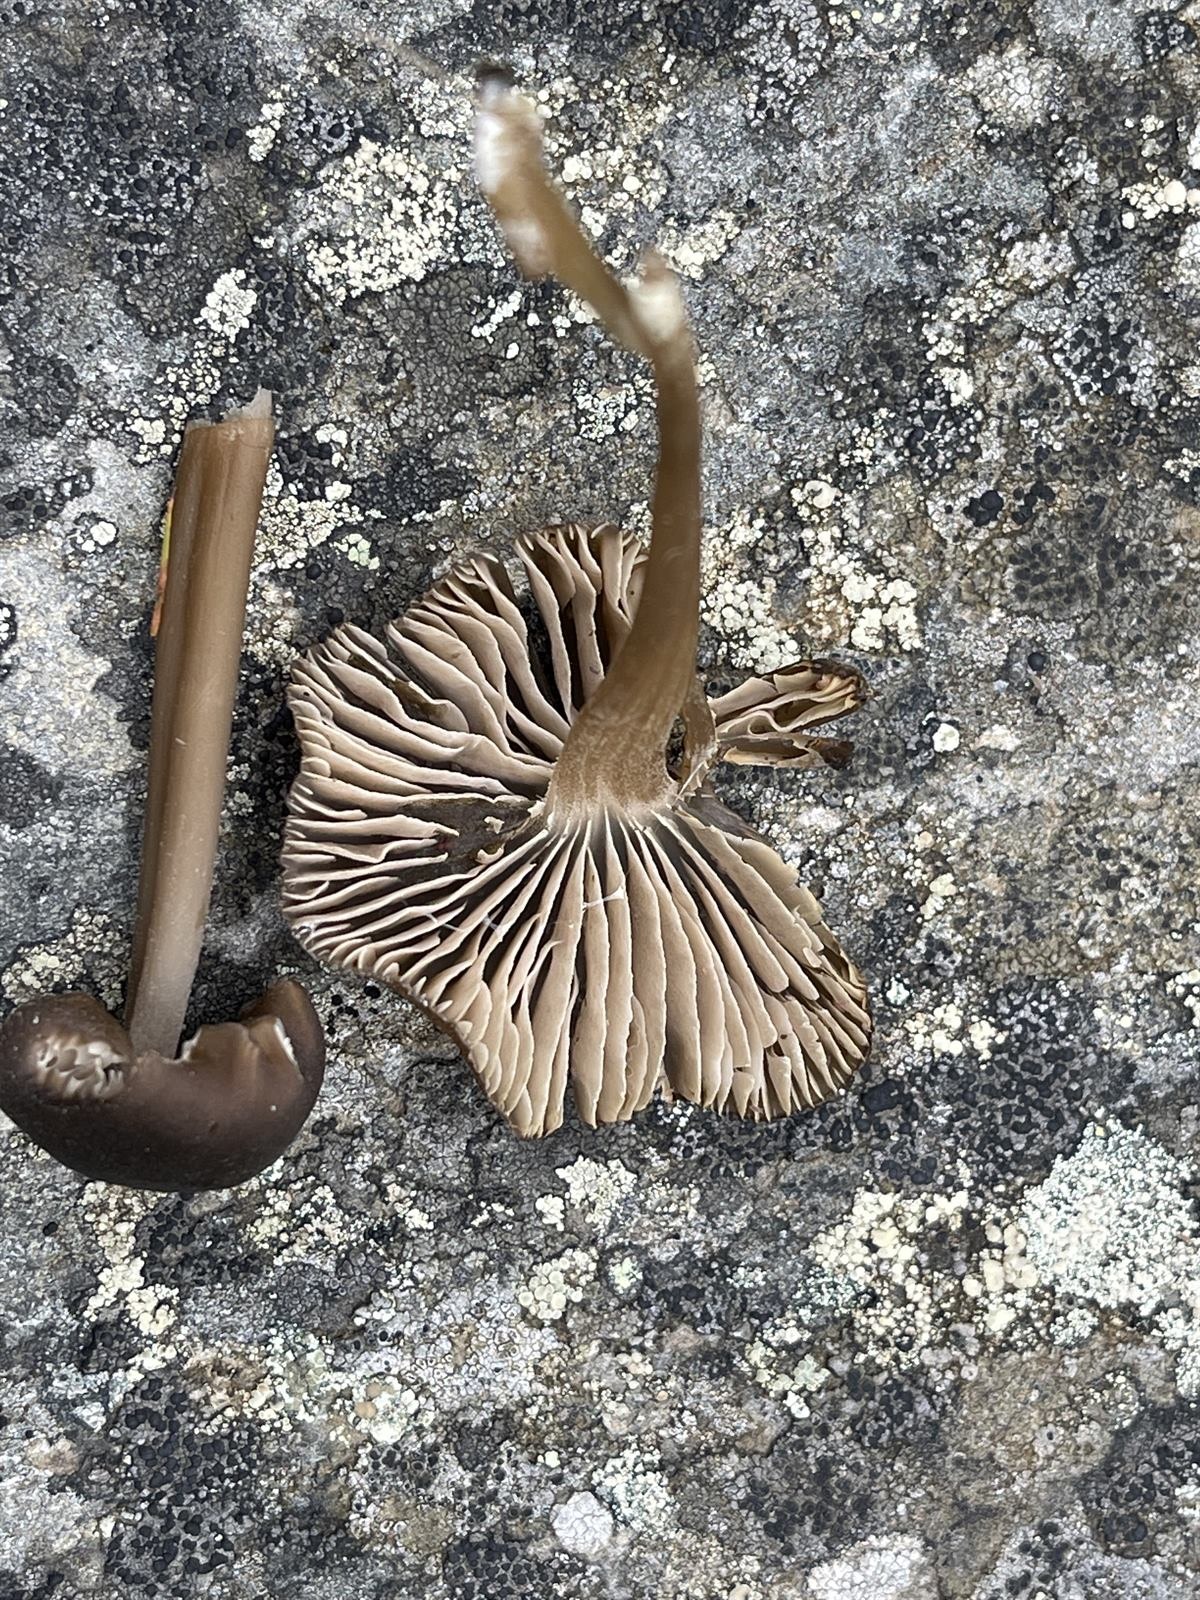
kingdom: Fungi
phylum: Basidiomycota
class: Agaricomycetes
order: Agaricales
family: Entolomataceae
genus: Entoloma
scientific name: Entoloma rhombisporum
